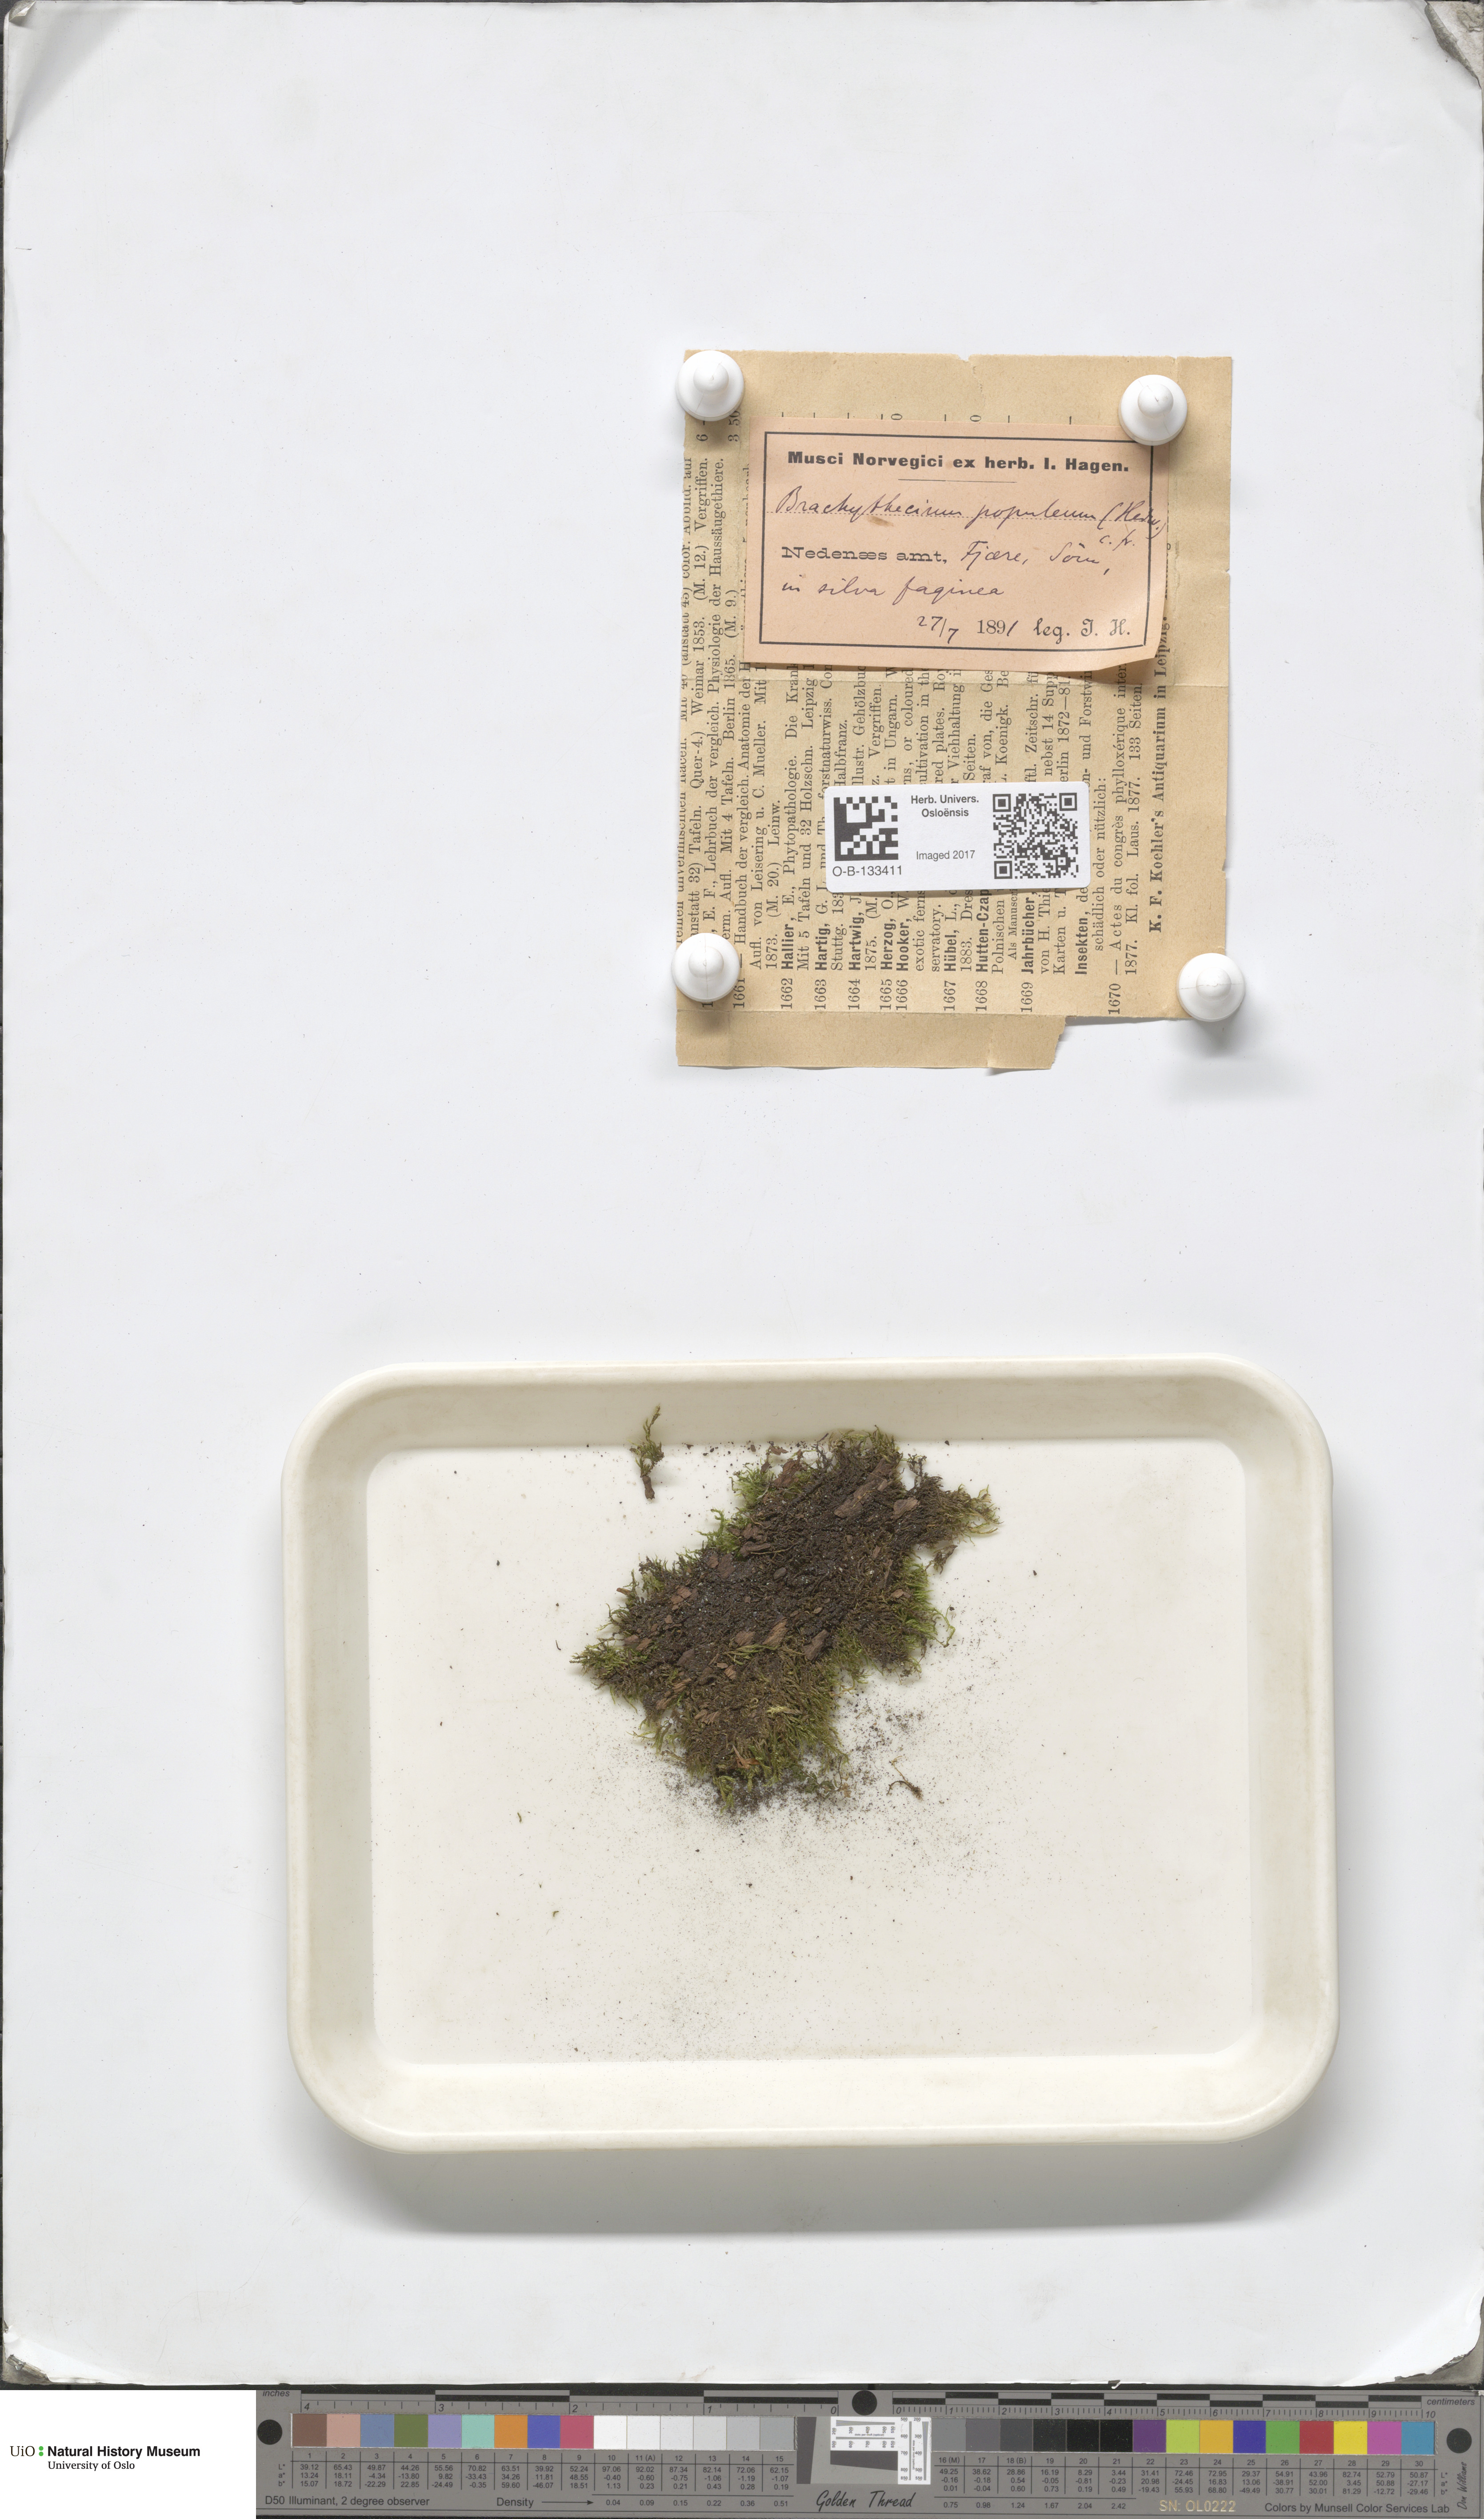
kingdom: Plantae
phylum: Bryophyta
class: Bryopsida
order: Hypnales
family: Brachytheciaceae
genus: Sciuro-hypnum
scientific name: Sciuro-hypnum plumosum
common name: Rusty feather-moss
